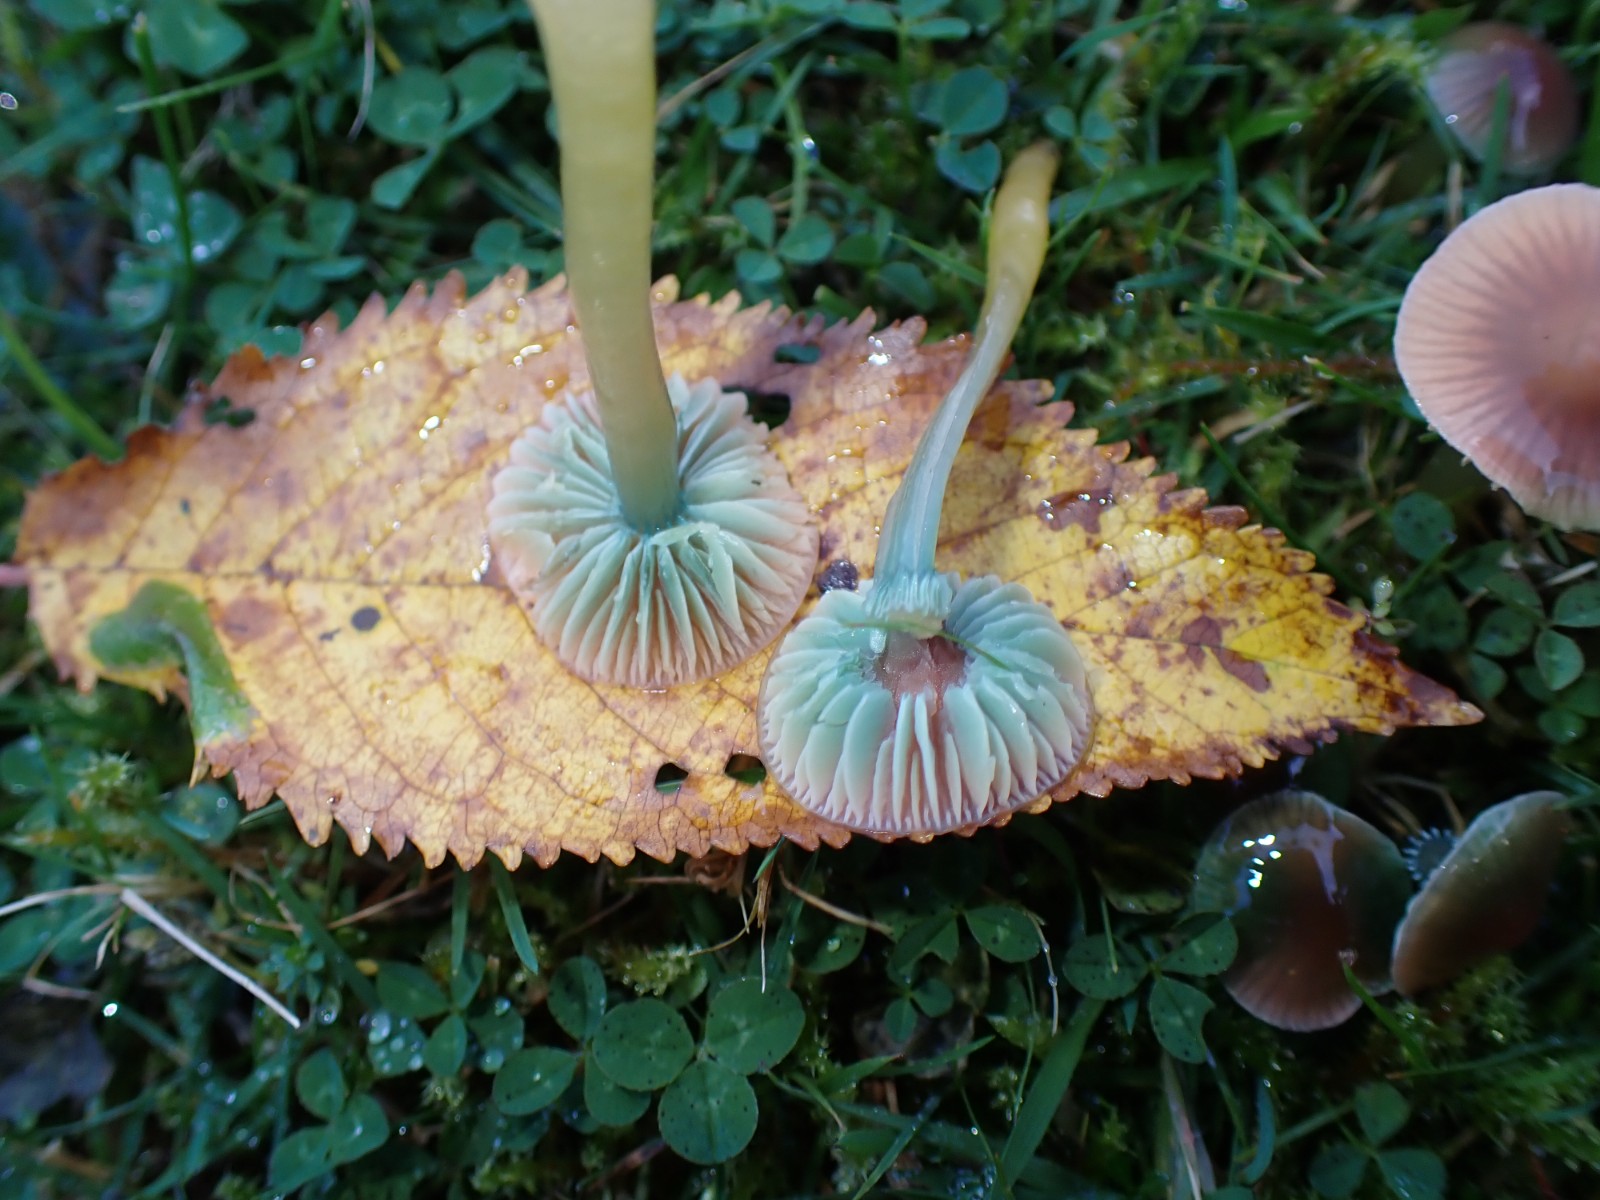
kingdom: Fungi
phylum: Basidiomycota
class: Agaricomycetes
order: Agaricales
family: Hygrophoraceae
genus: Gliophorus
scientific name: Gliophorus psittacinus
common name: papegøje-vokshat
